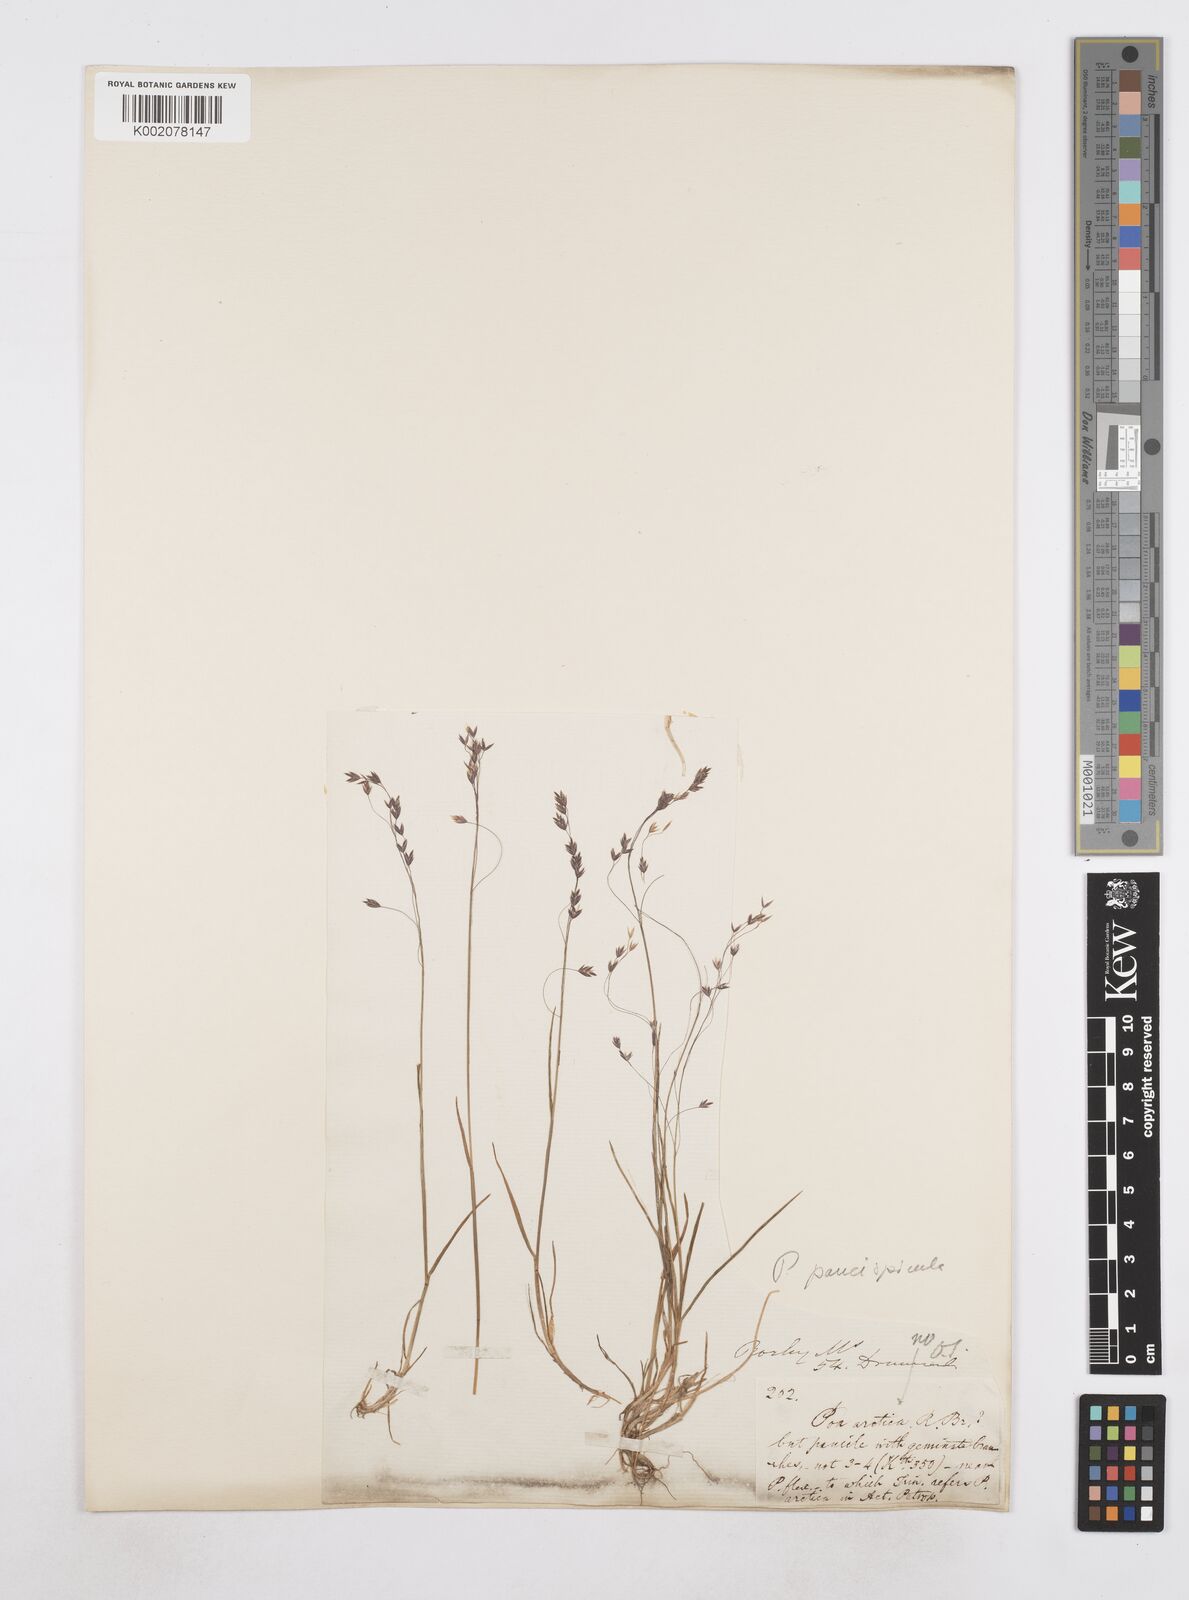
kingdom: Plantae
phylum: Tracheophyta
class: Liliopsida
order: Poales
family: Poaceae
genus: Poa
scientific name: Poa
